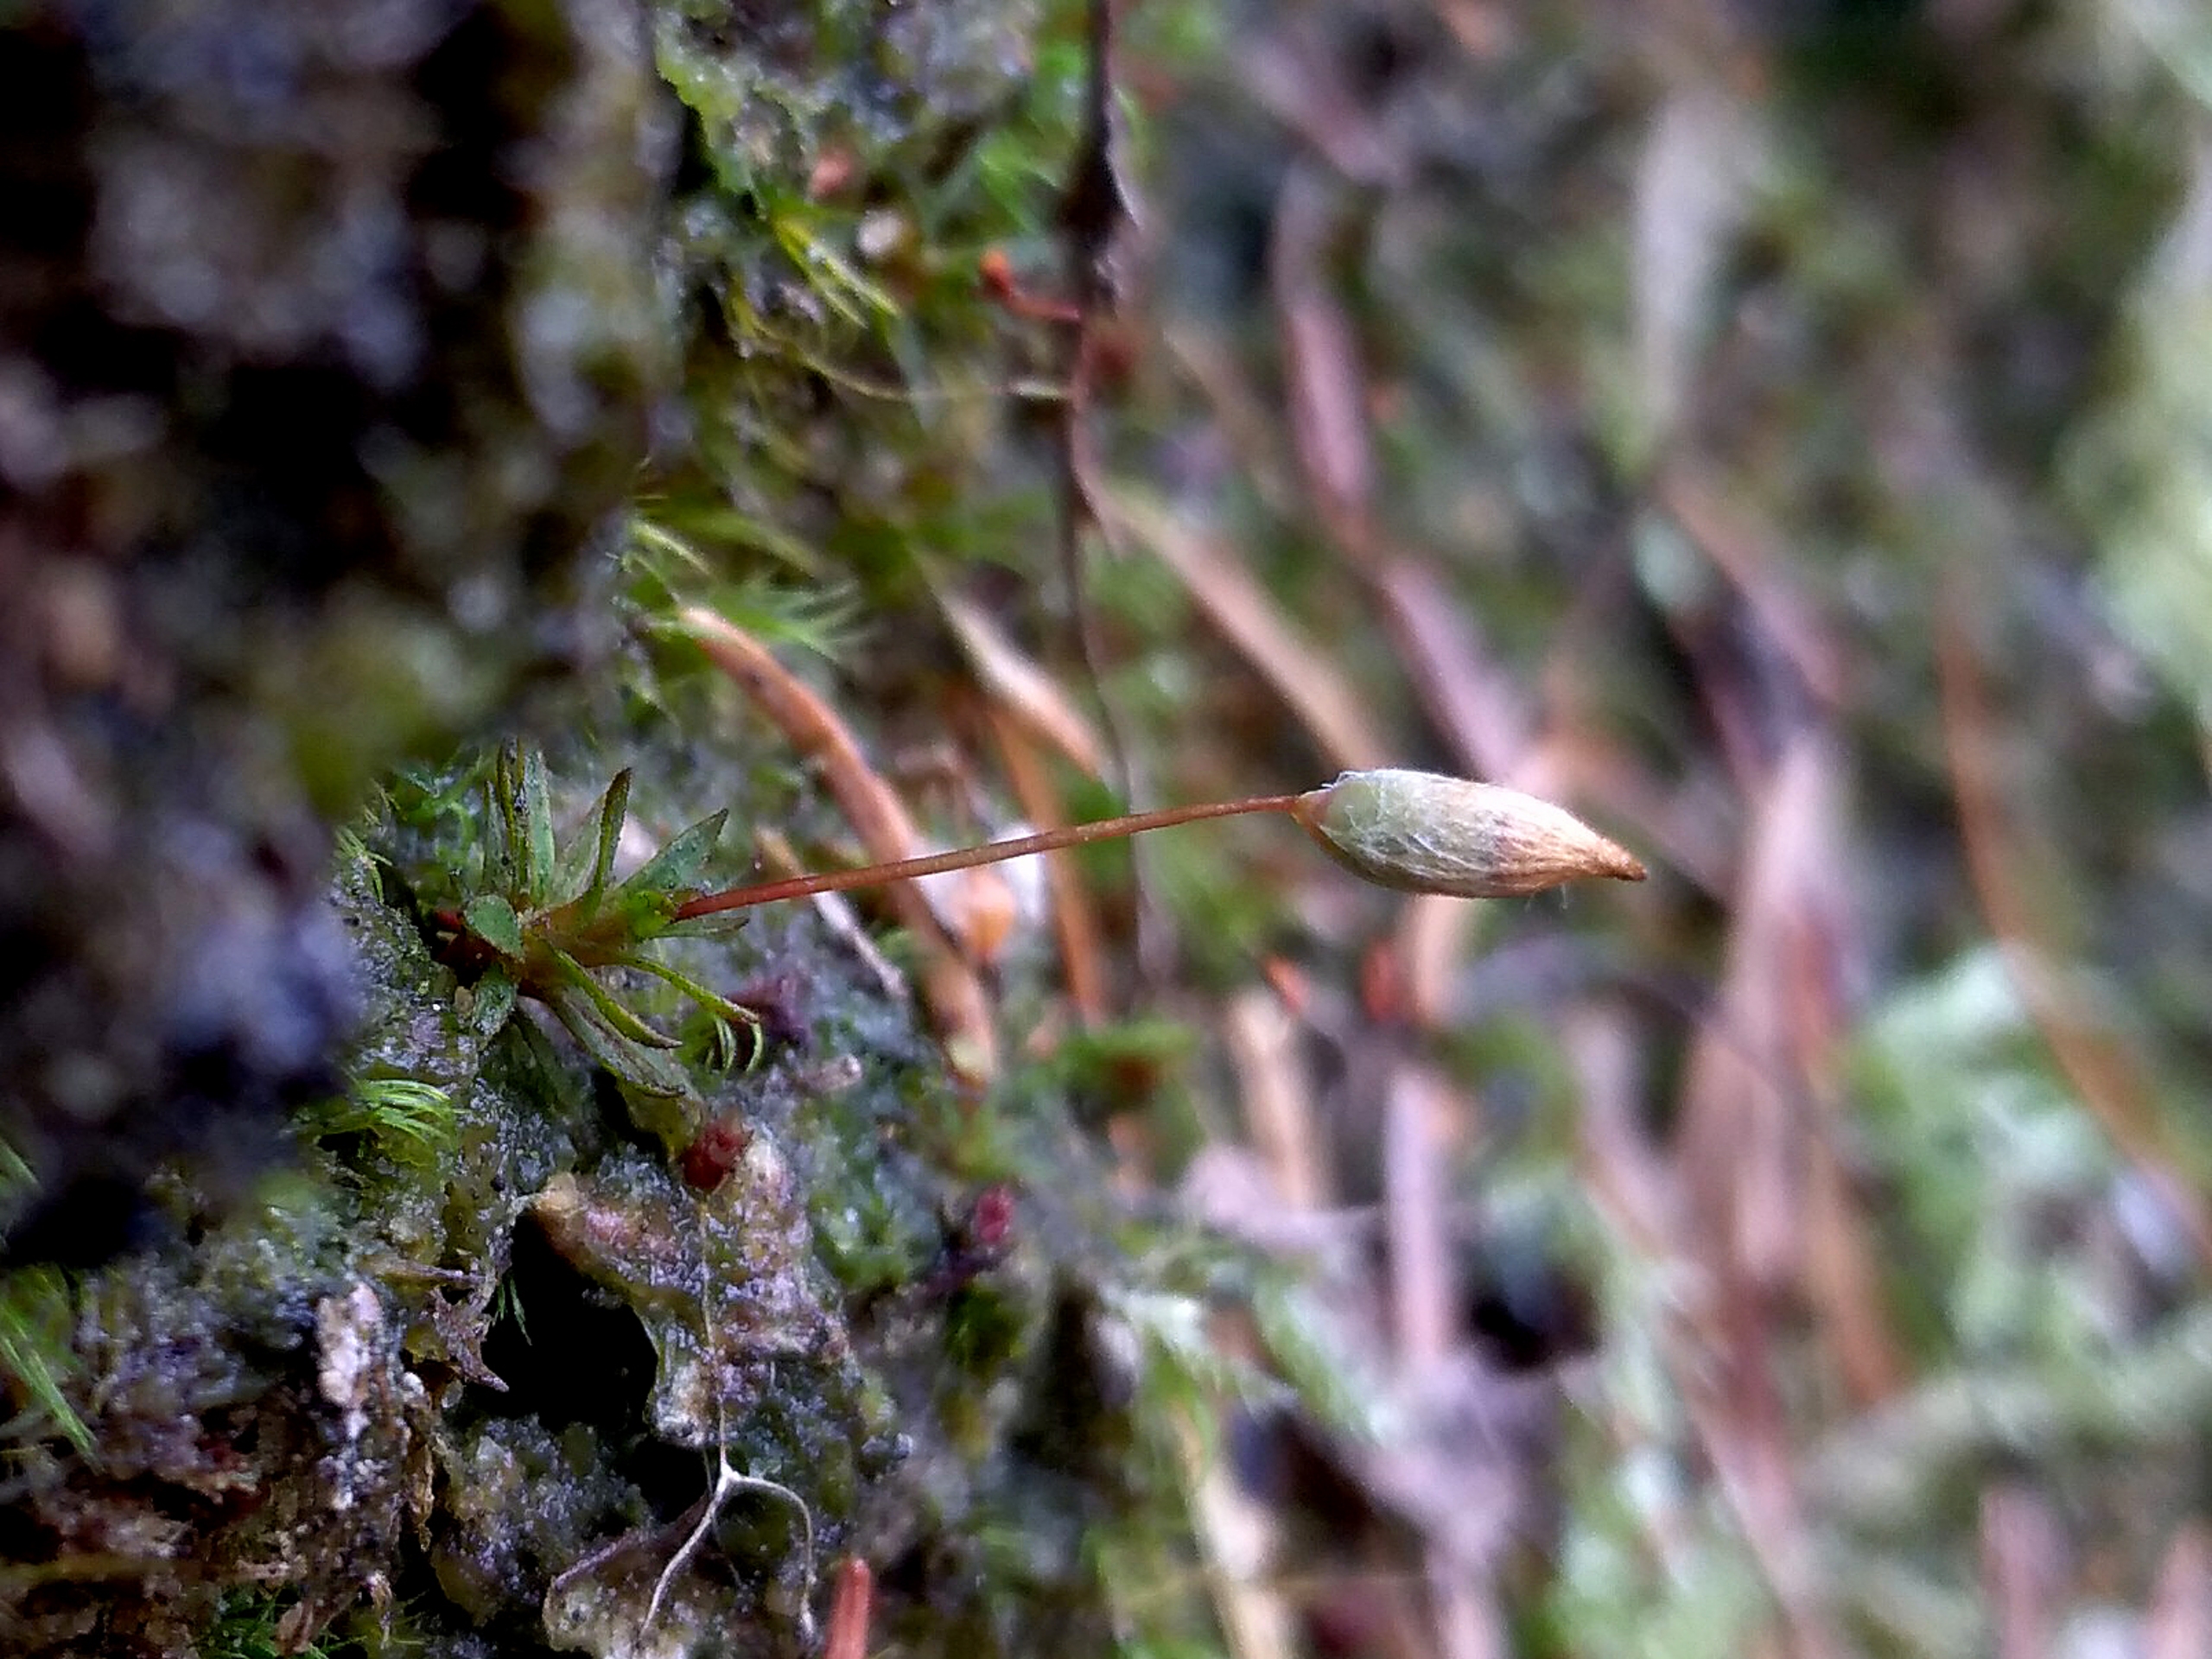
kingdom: Plantae
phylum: Bryophyta
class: Polytrichopsida
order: Polytrichales
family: Polytrichaceae
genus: Pogonatum
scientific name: Pogonatum aloides
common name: Smal urnekapsel
